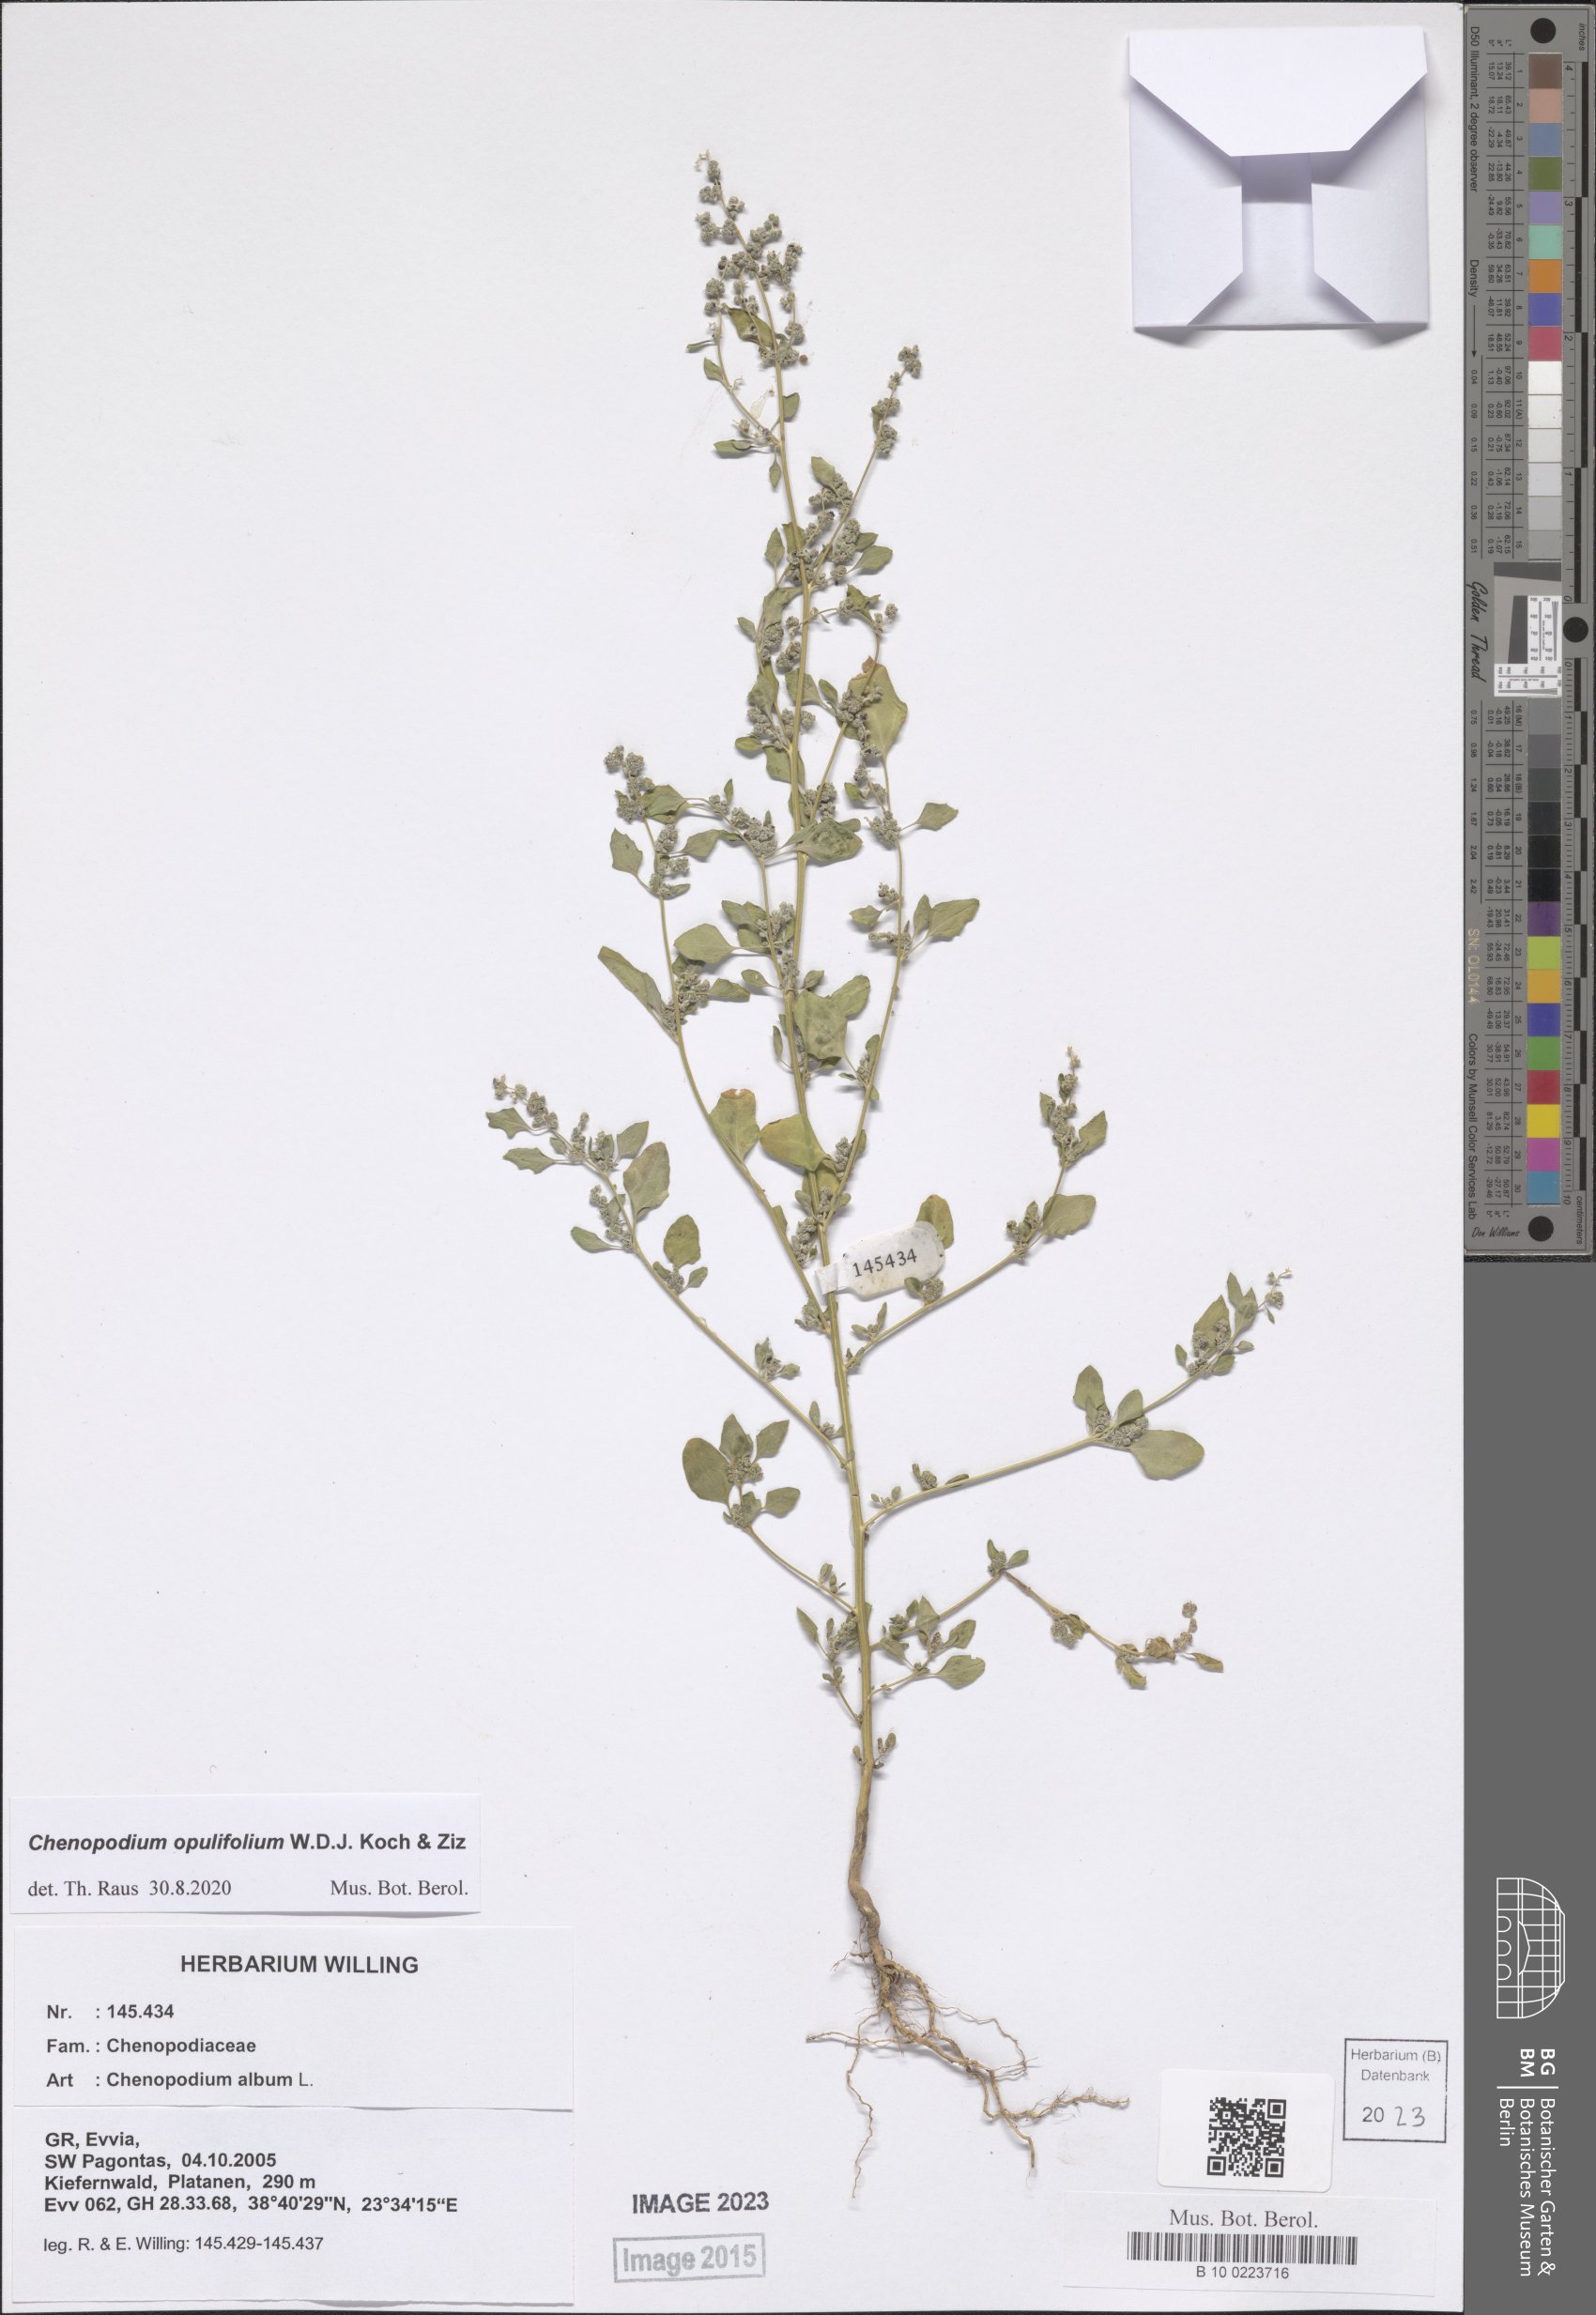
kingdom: Plantae
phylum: Tracheophyta
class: Magnoliopsida
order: Caryophyllales
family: Amaranthaceae
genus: Chenopodium
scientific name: Chenopodium opulifolium
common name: Grey goosefoot
